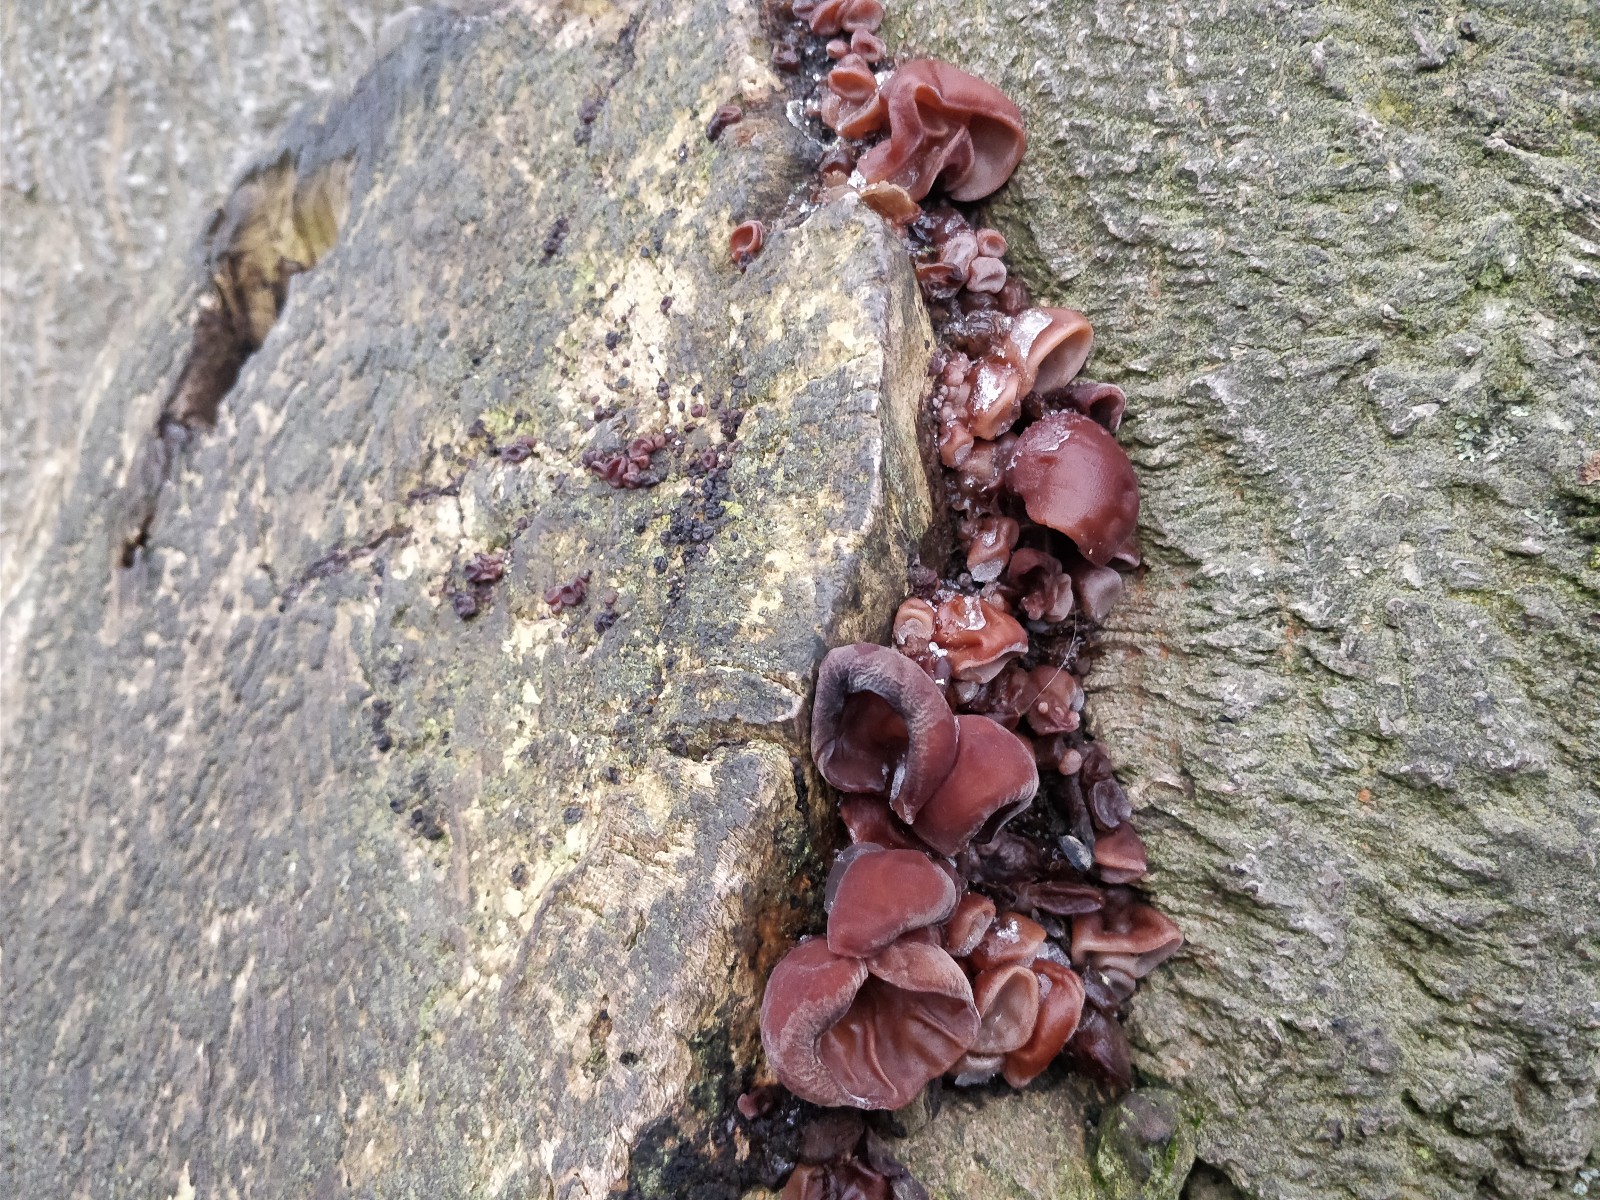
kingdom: Fungi
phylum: Basidiomycota
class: Agaricomycetes
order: Auriculariales
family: Auriculariaceae
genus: Auricularia
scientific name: Auricularia auricula-judae
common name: almindelig judasøre
